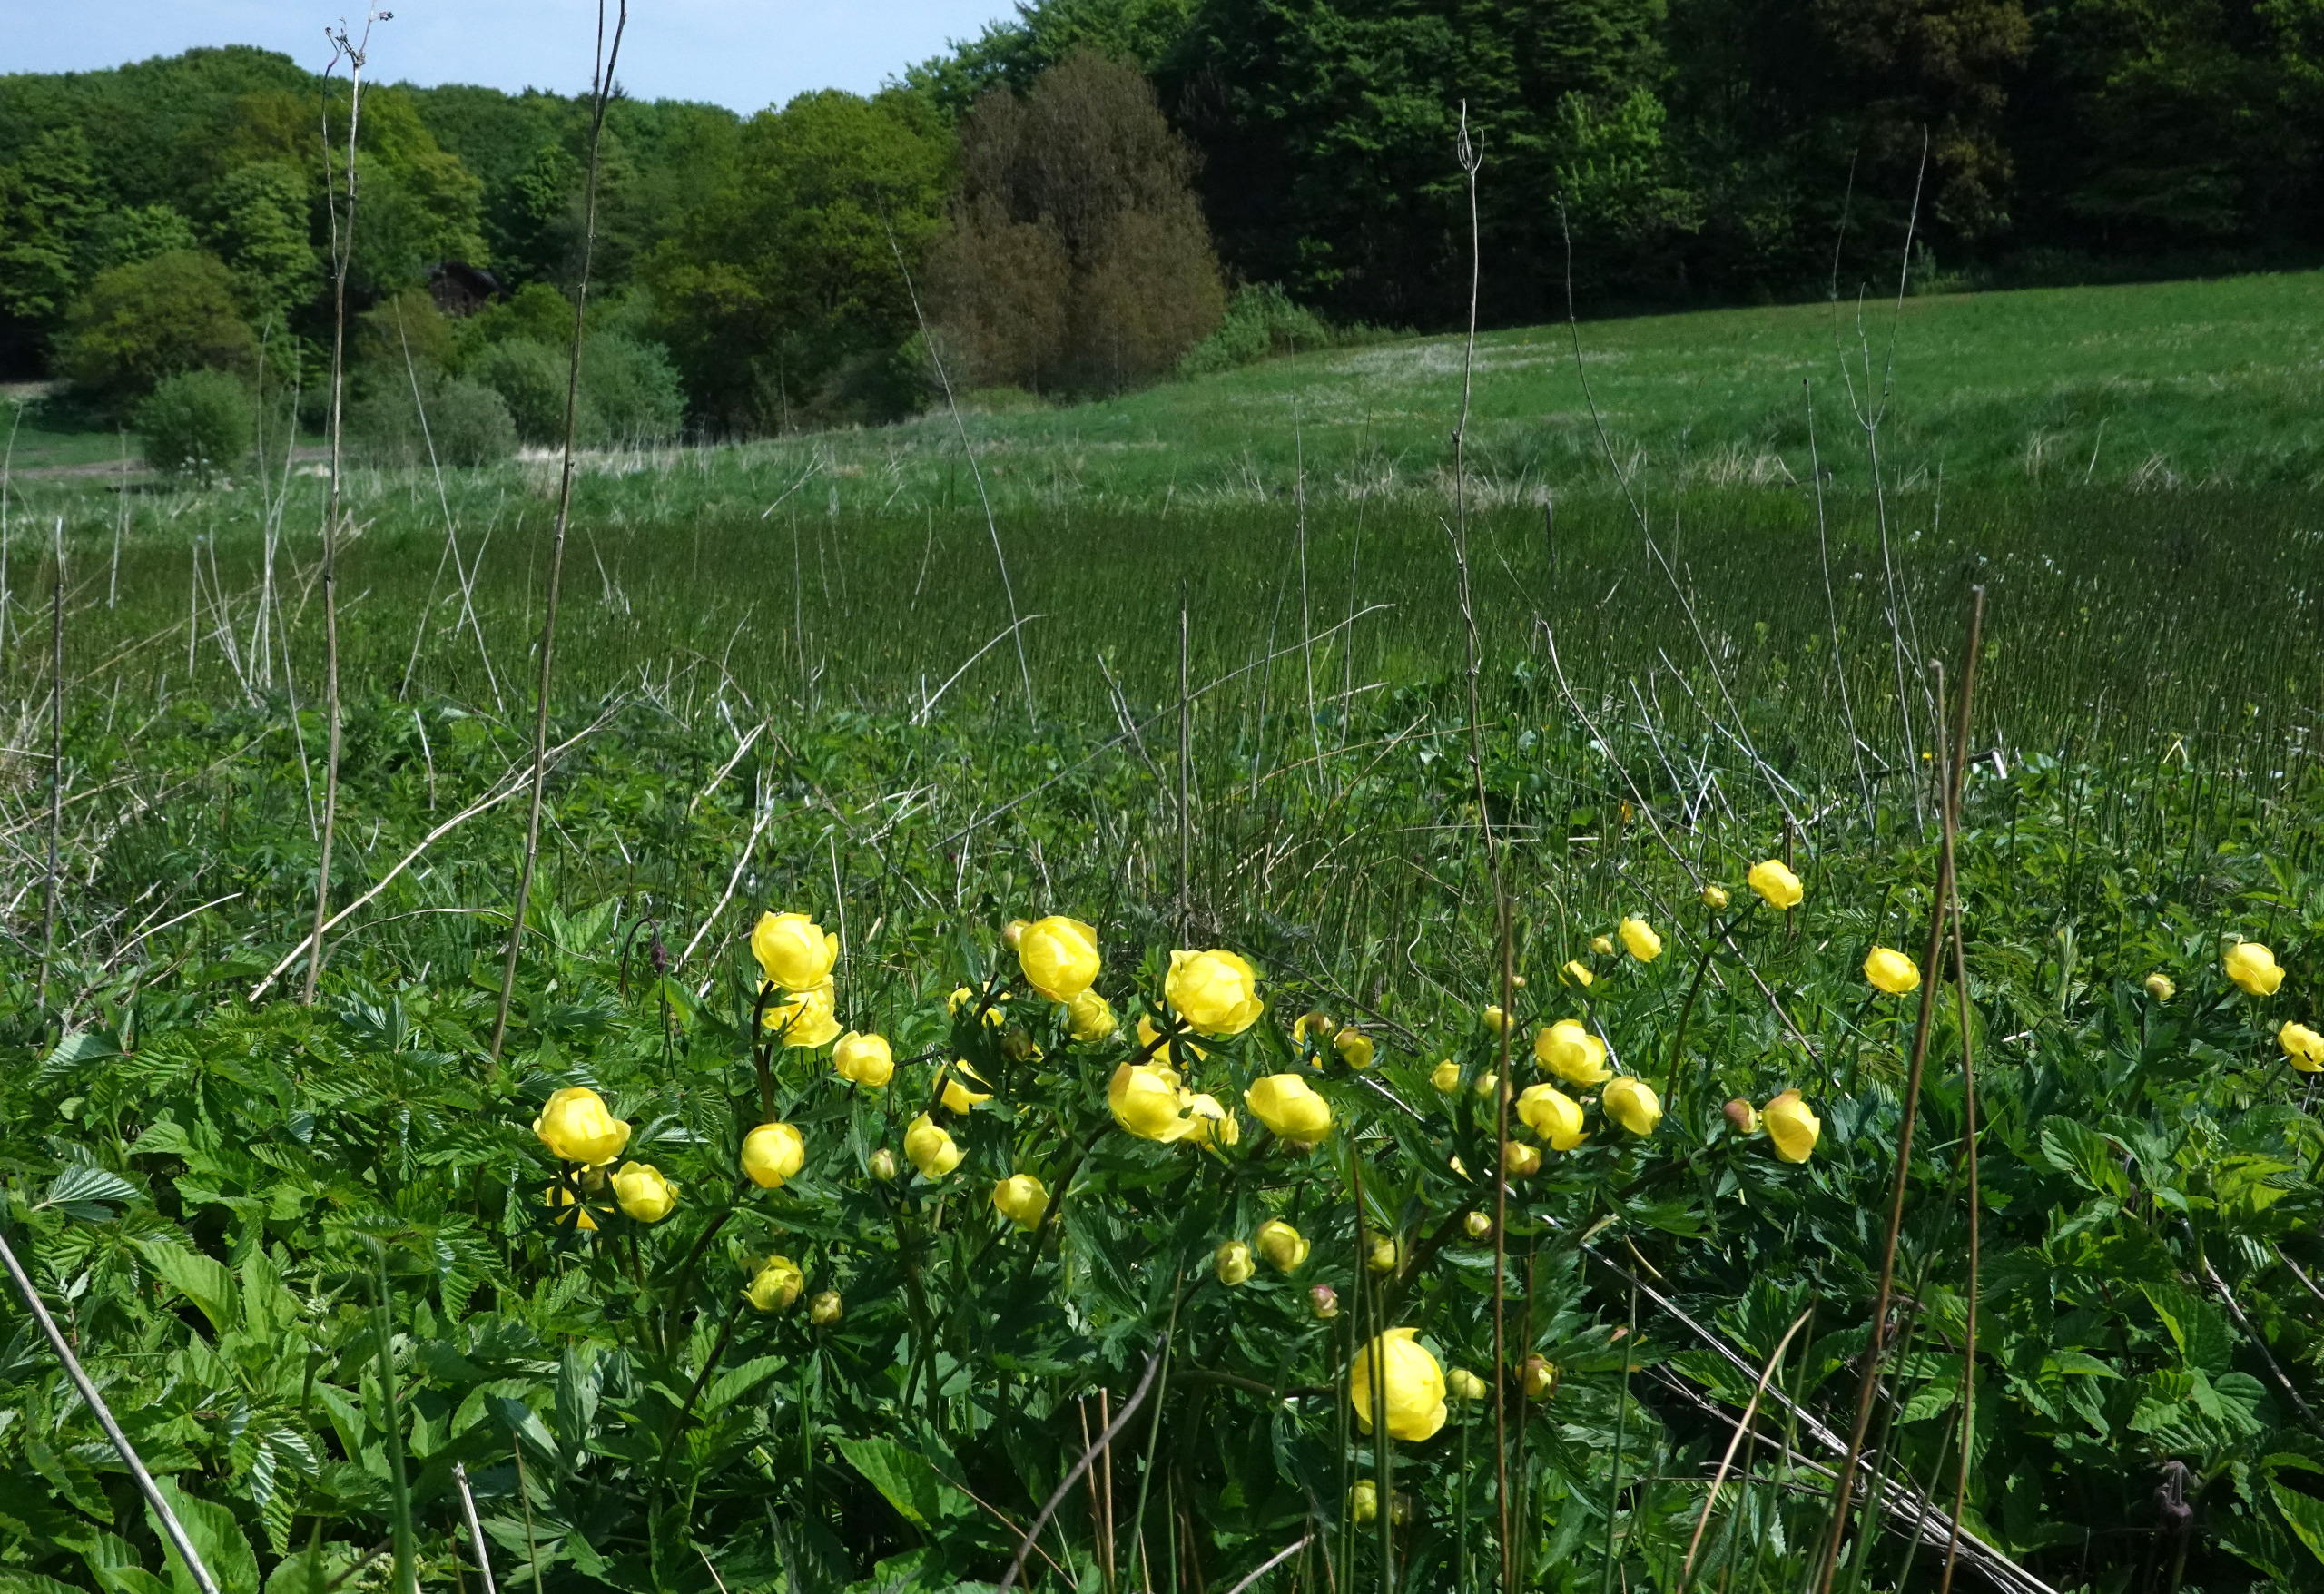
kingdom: Plantae
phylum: Tracheophyta
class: Magnoliopsida
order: Ranunculales
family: Ranunculaceae
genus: Trollius
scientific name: Trollius europaeus
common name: Engblomme
